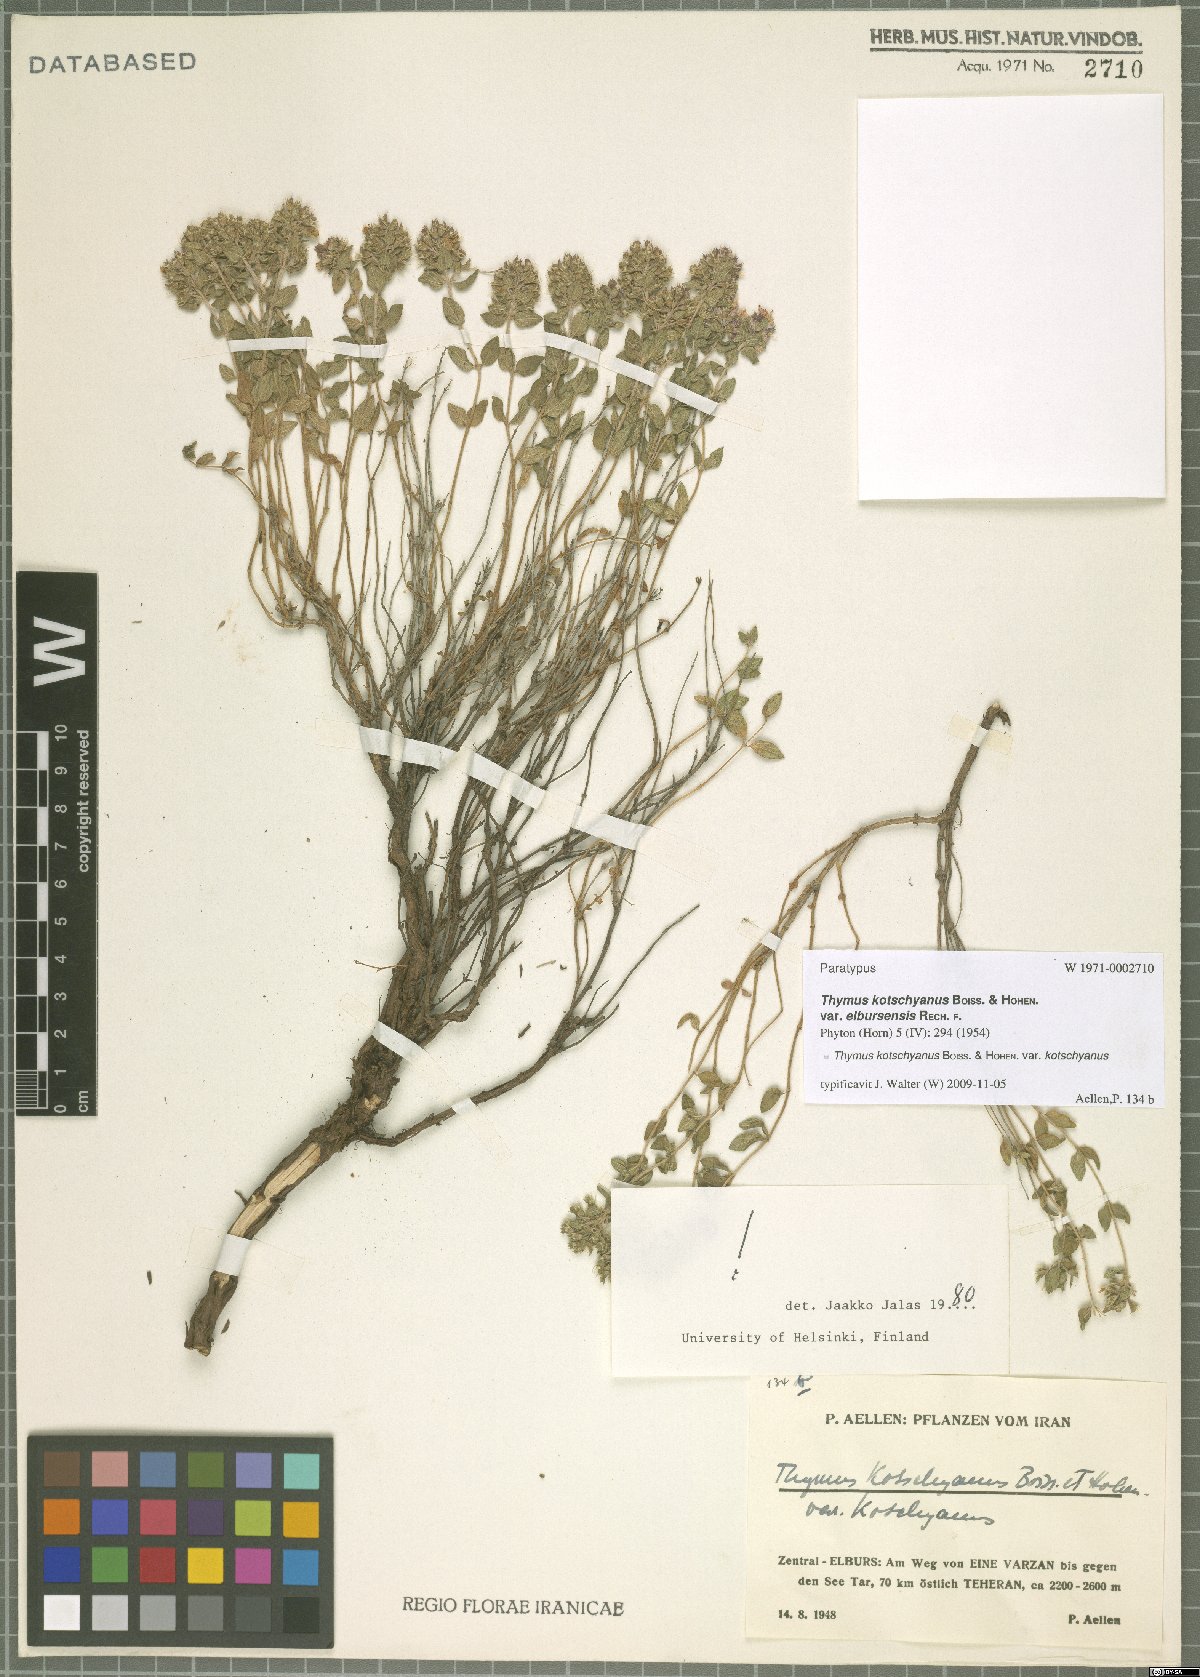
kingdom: Plantae
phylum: Tracheophyta
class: Magnoliopsida
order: Lamiales
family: Lamiaceae
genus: Thymus
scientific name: Thymus kotschyanus
